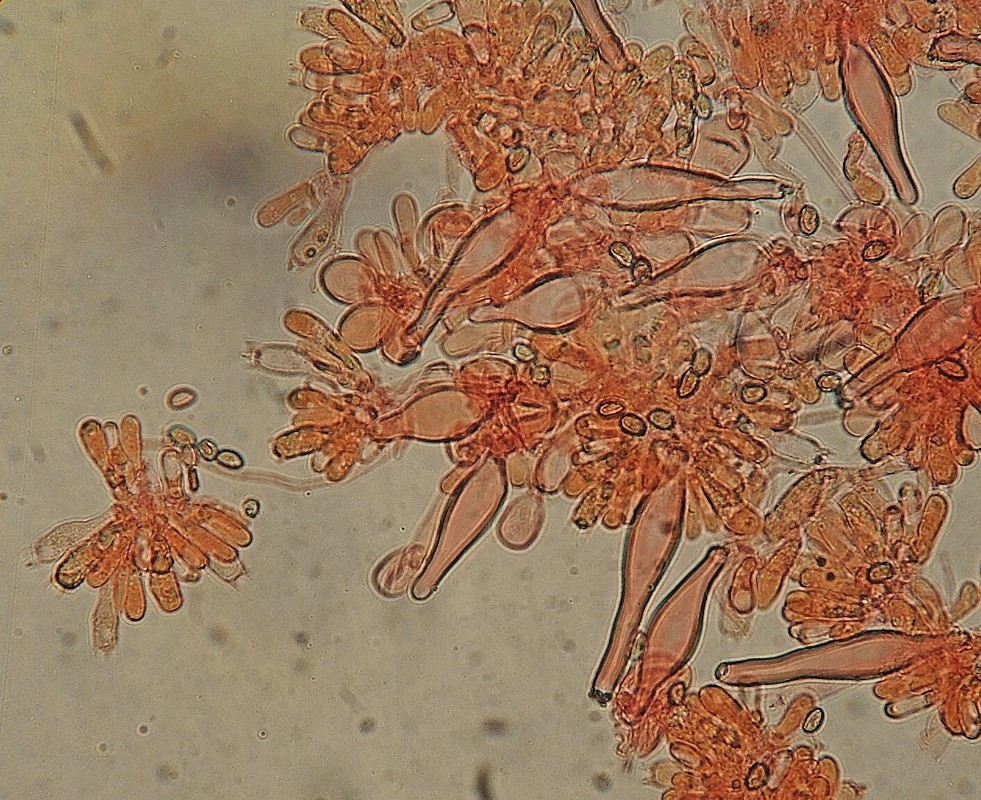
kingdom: Fungi
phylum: Basidiomycota
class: Agaricomycetes
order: Agaricales
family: Inocybaceae
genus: Inocybe
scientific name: Inocybe
